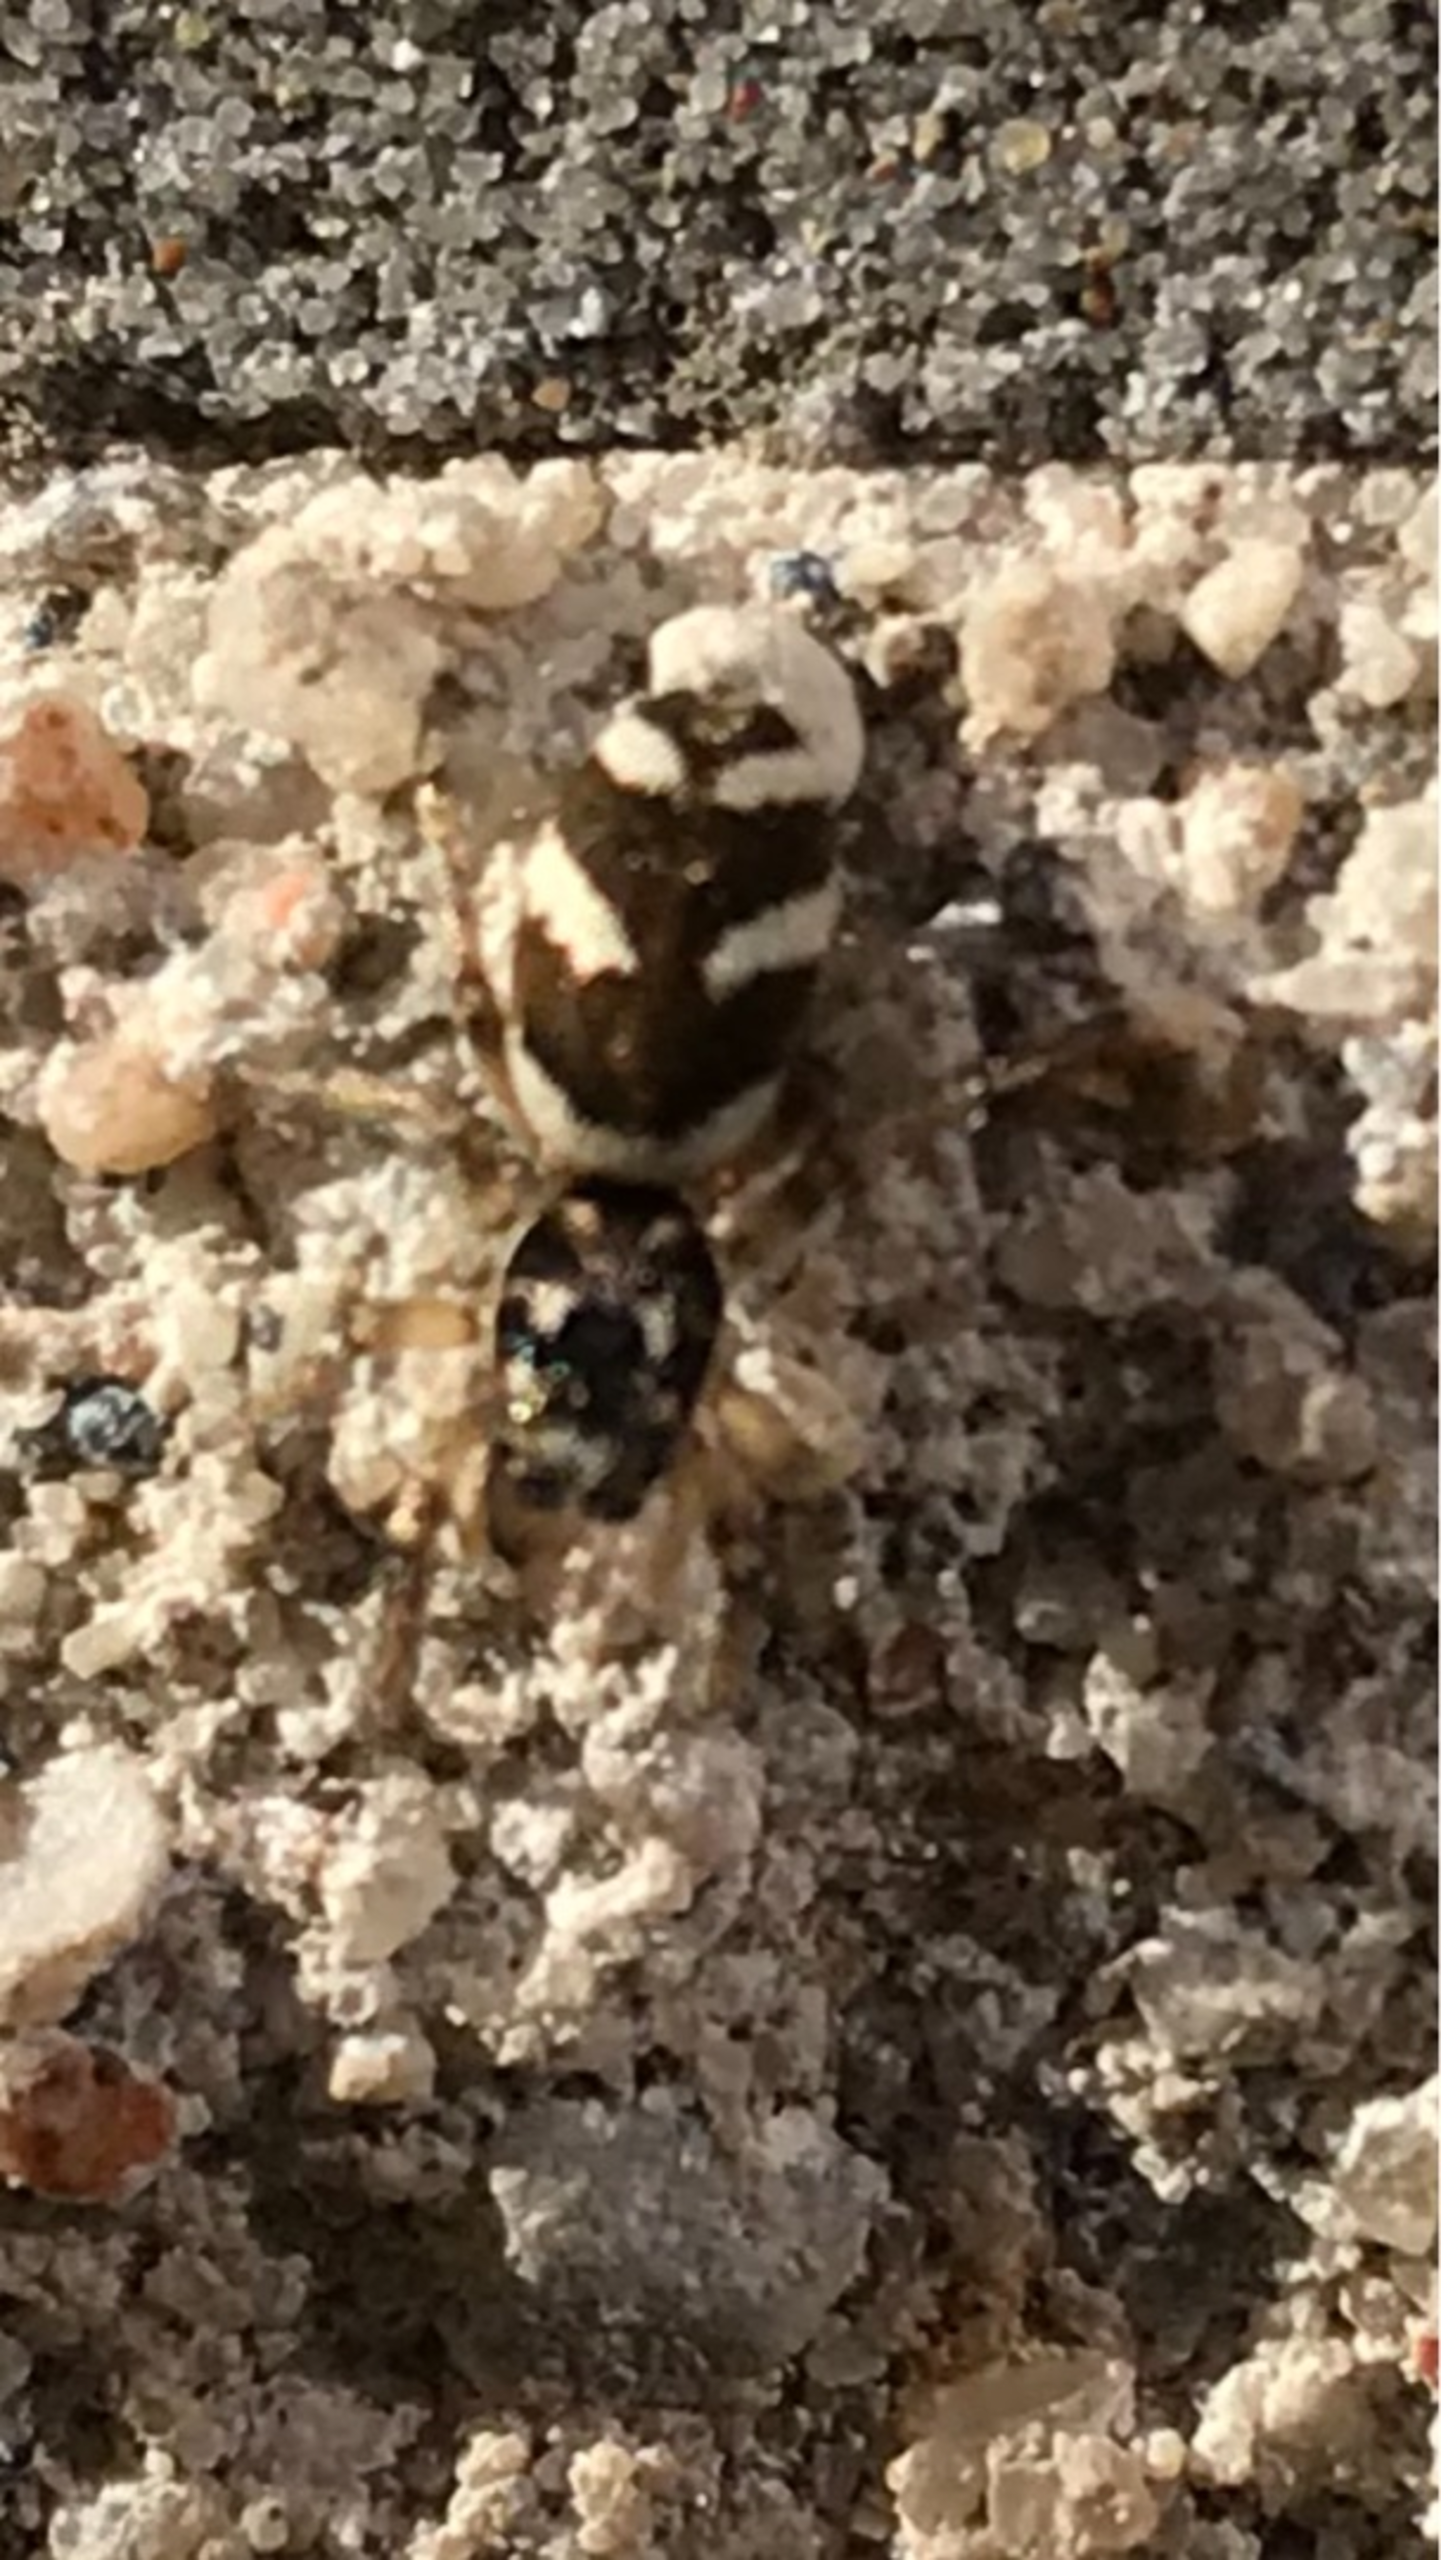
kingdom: Animalia
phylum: Arthropoda
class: Arachnida
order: Araneae
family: Salticidae
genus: Salticus
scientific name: Salticus scenicus
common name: Almindelig zebraedderkop
